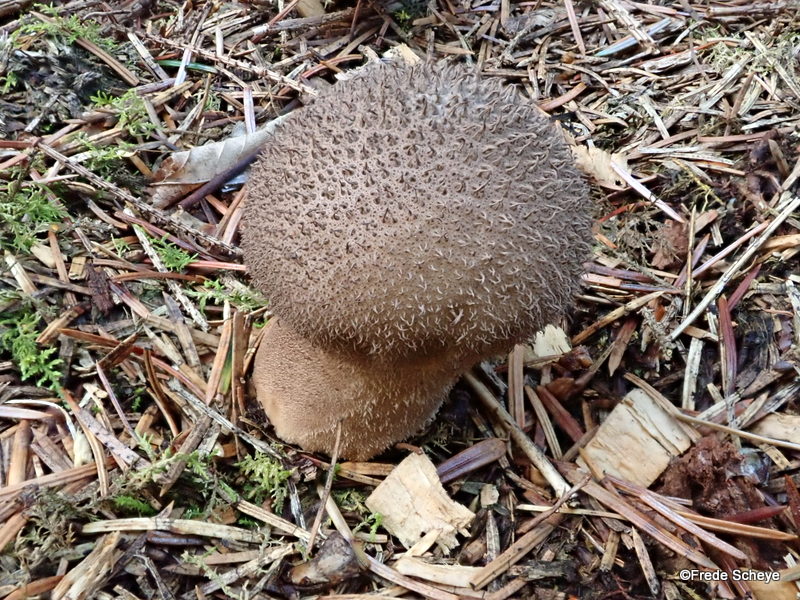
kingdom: Fungi
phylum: Basidiomycota
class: Agaricomycetes
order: Agaricales
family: Lycoperdaceae
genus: Lycoperdon
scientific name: Lycoperdon nigrescens
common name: sortagtig støvbold
